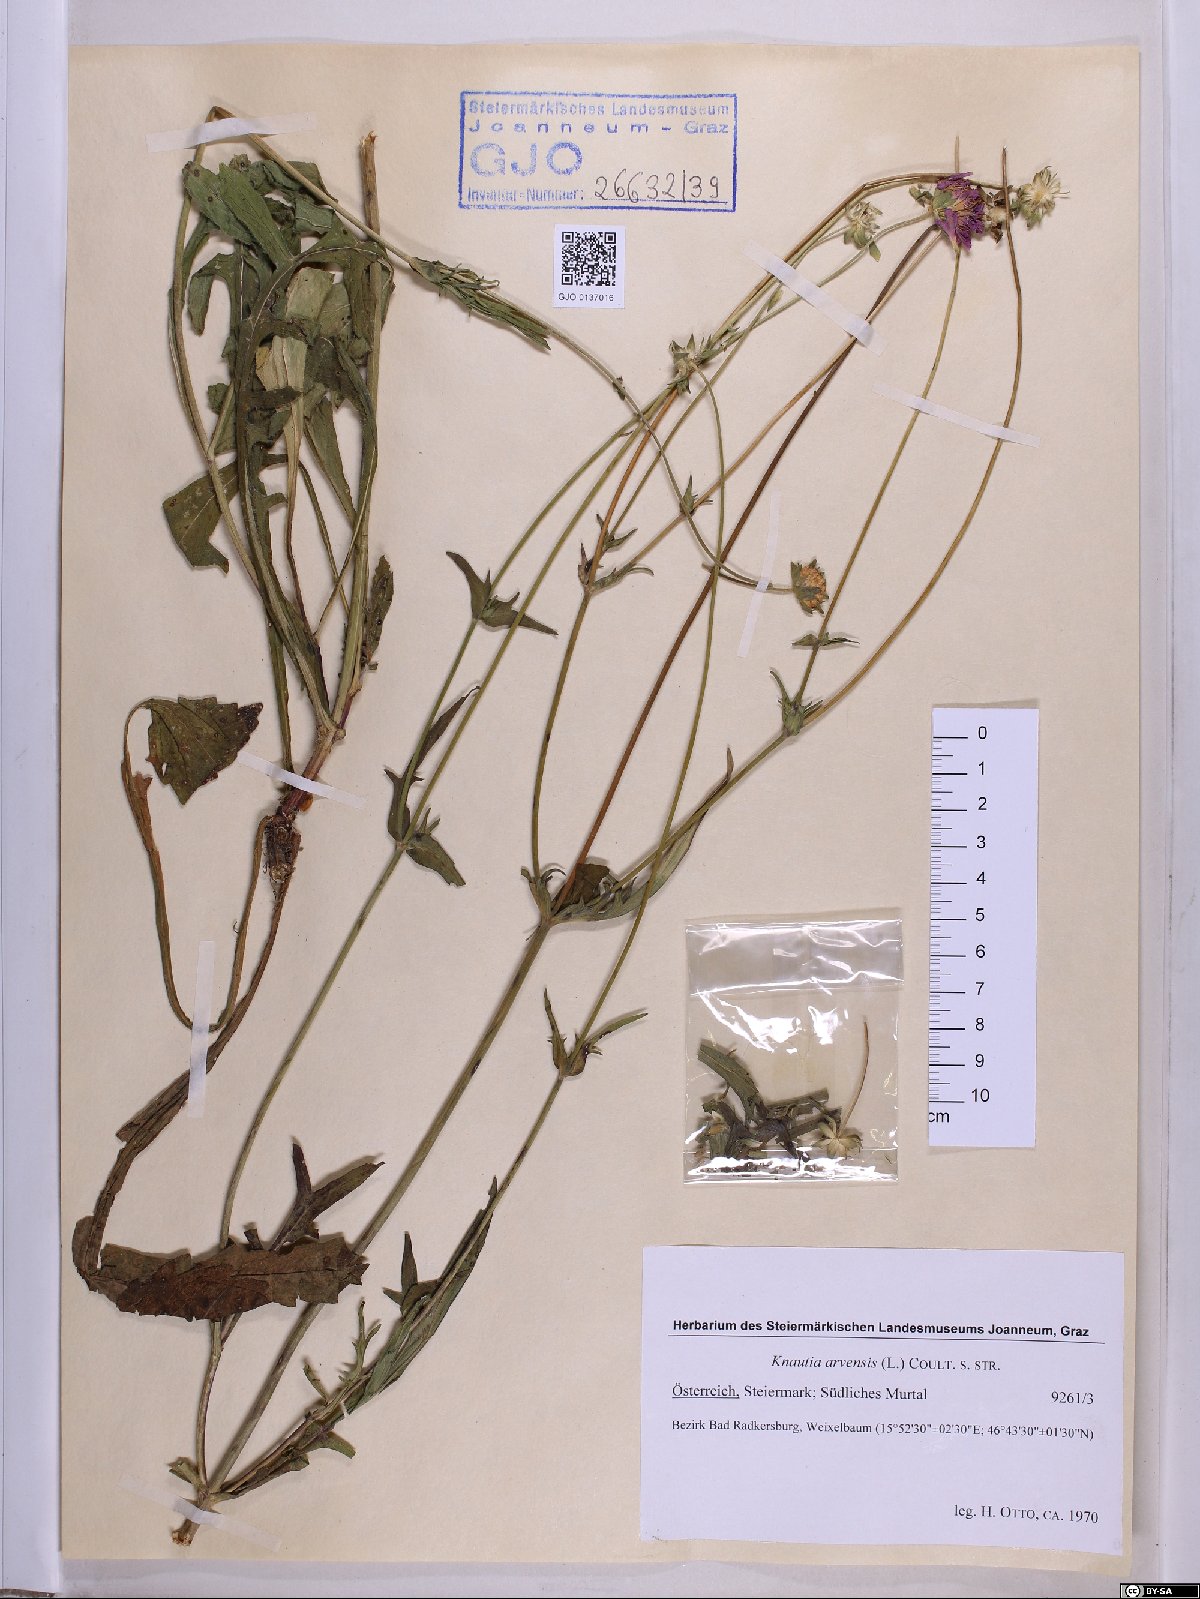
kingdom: Plantae
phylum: Tracheophyta
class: Magnoliopsida
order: Dipsacales
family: Caprifoliaceae
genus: Knautia
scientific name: Knautia arvensis
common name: Field scabiosa
